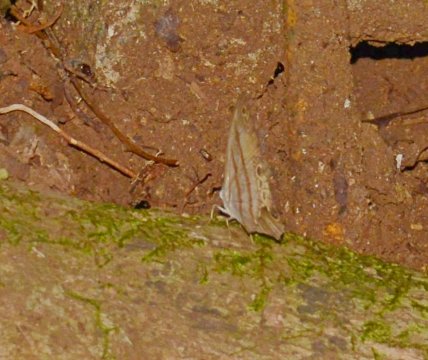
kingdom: Animalia
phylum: Arthropoda
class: Insecta
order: Lepidoptera
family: Nymphalidae
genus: Euptychia
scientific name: Euptychia
